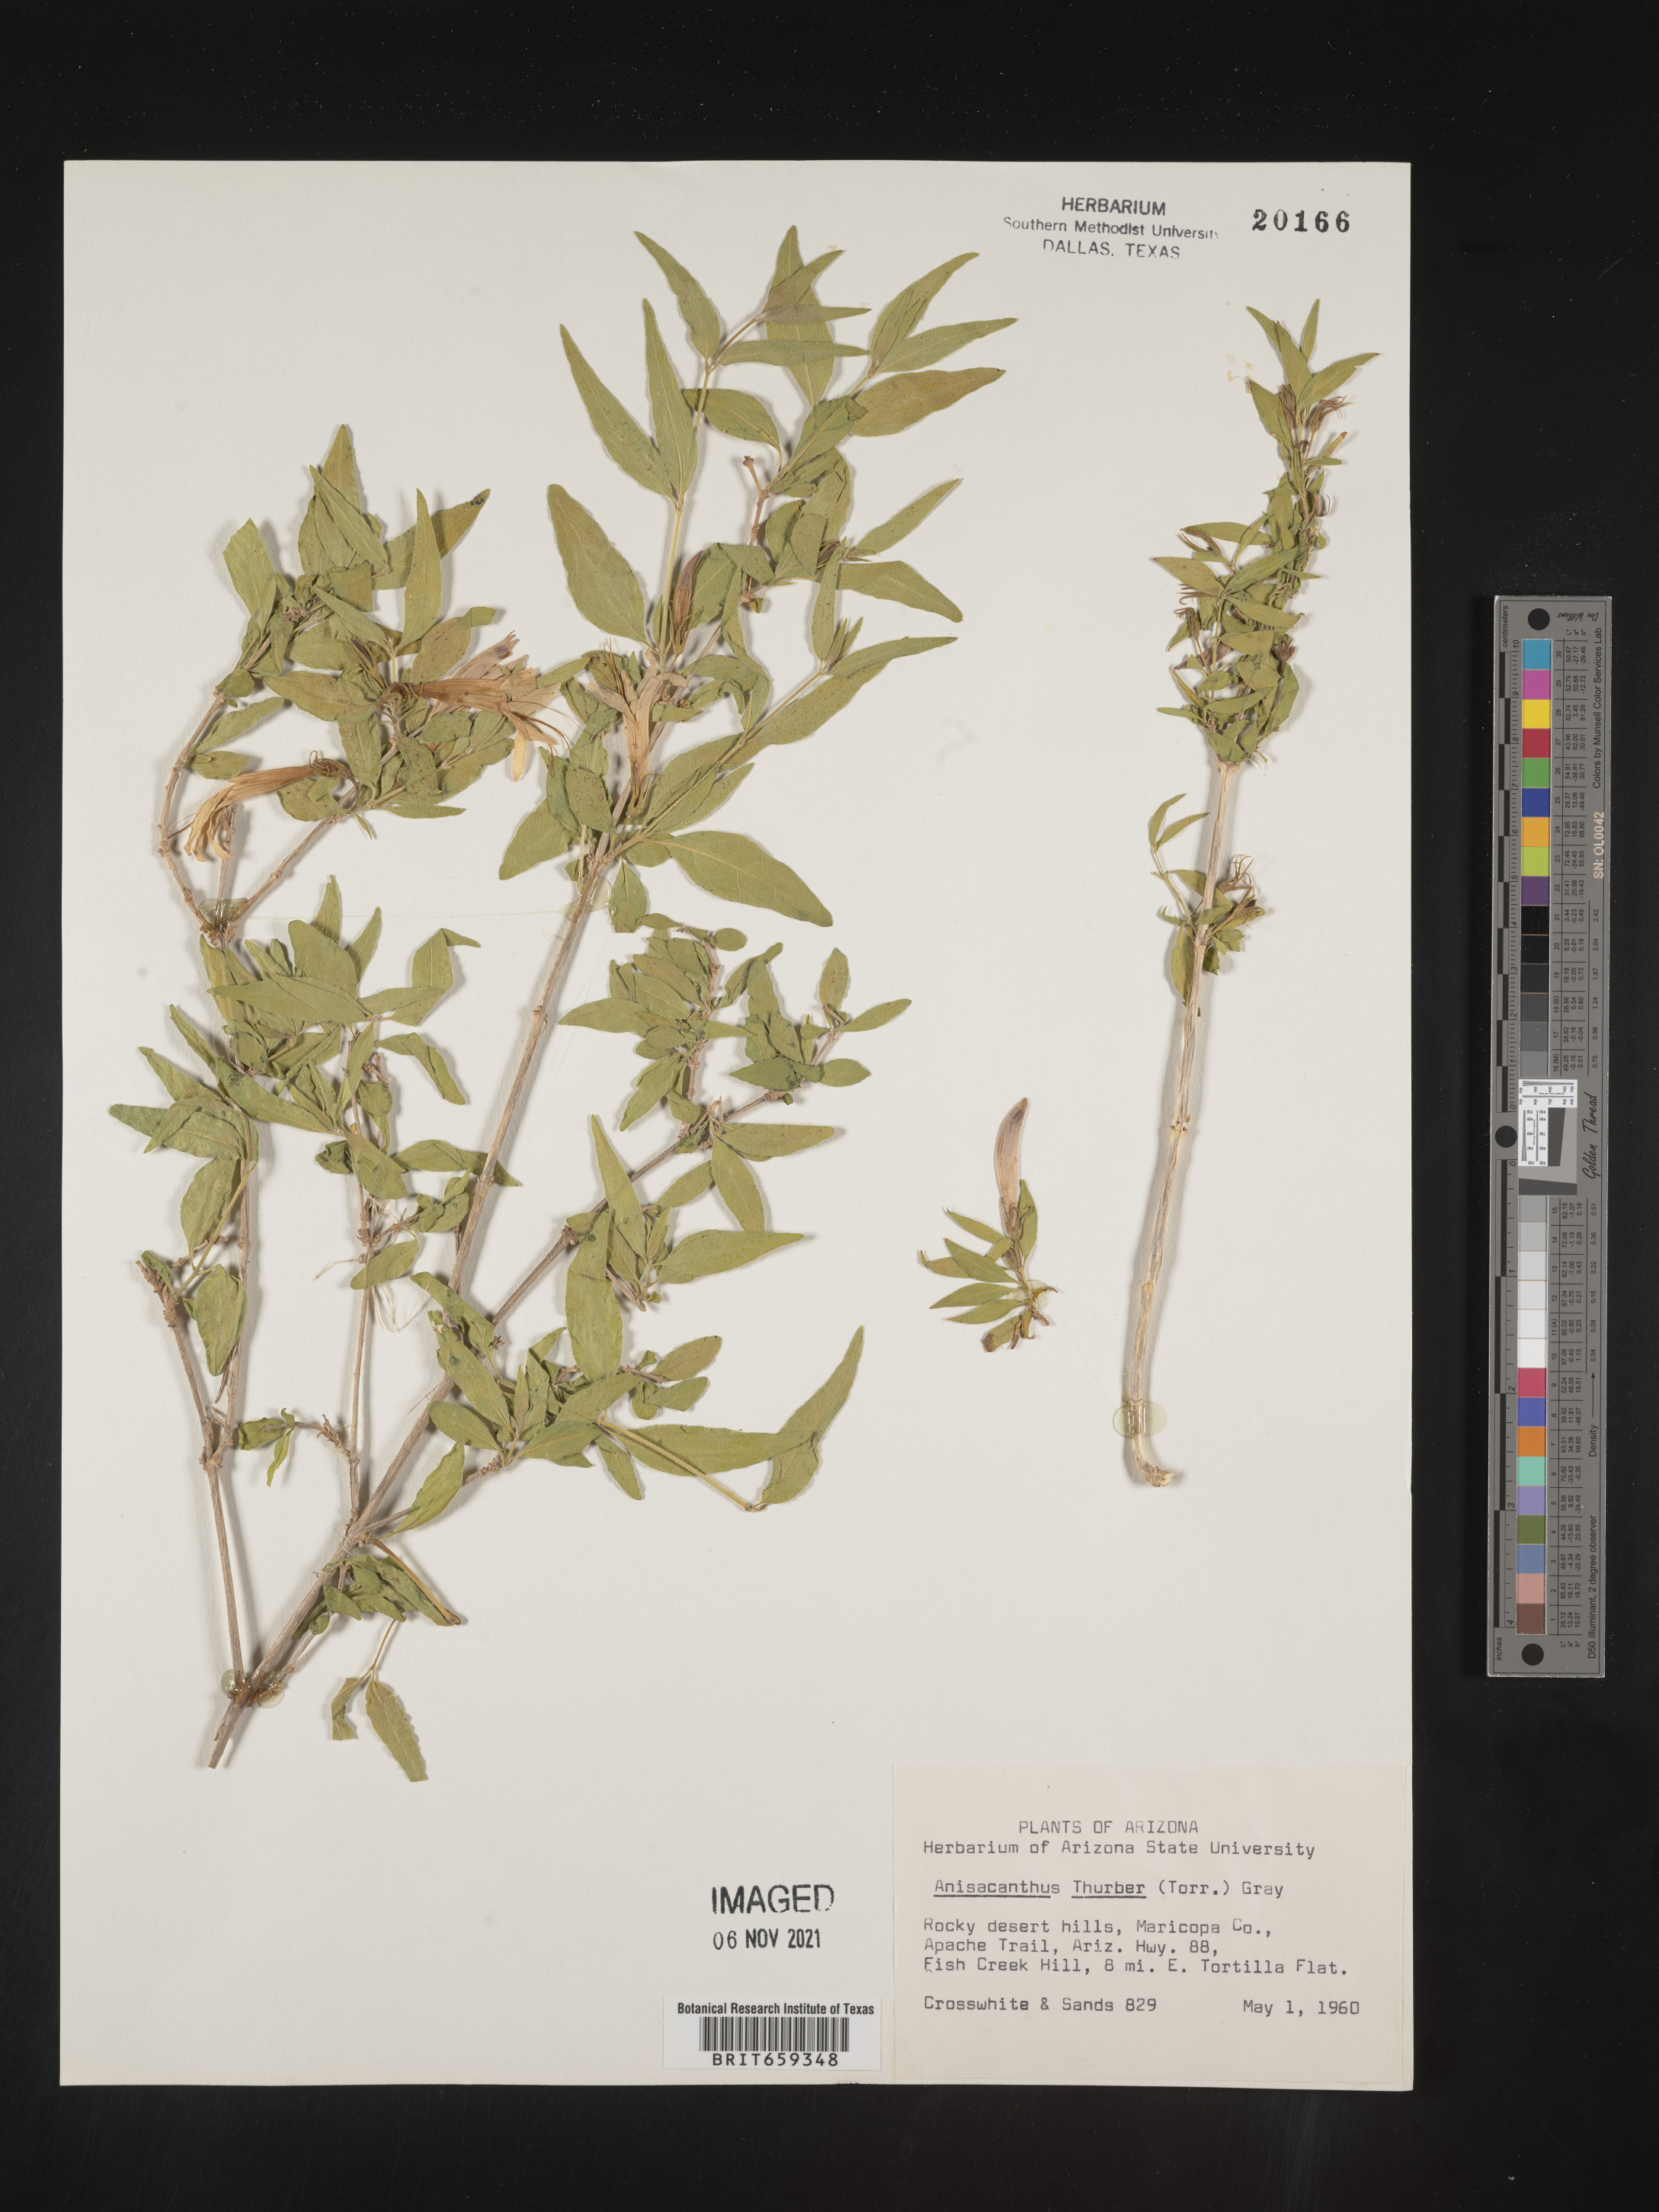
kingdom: Plantae
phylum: Tracheophyta
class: Magnoliopsida
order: Lamiales
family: Acanthaceae
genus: Anisacanthus
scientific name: Anisacanthus
